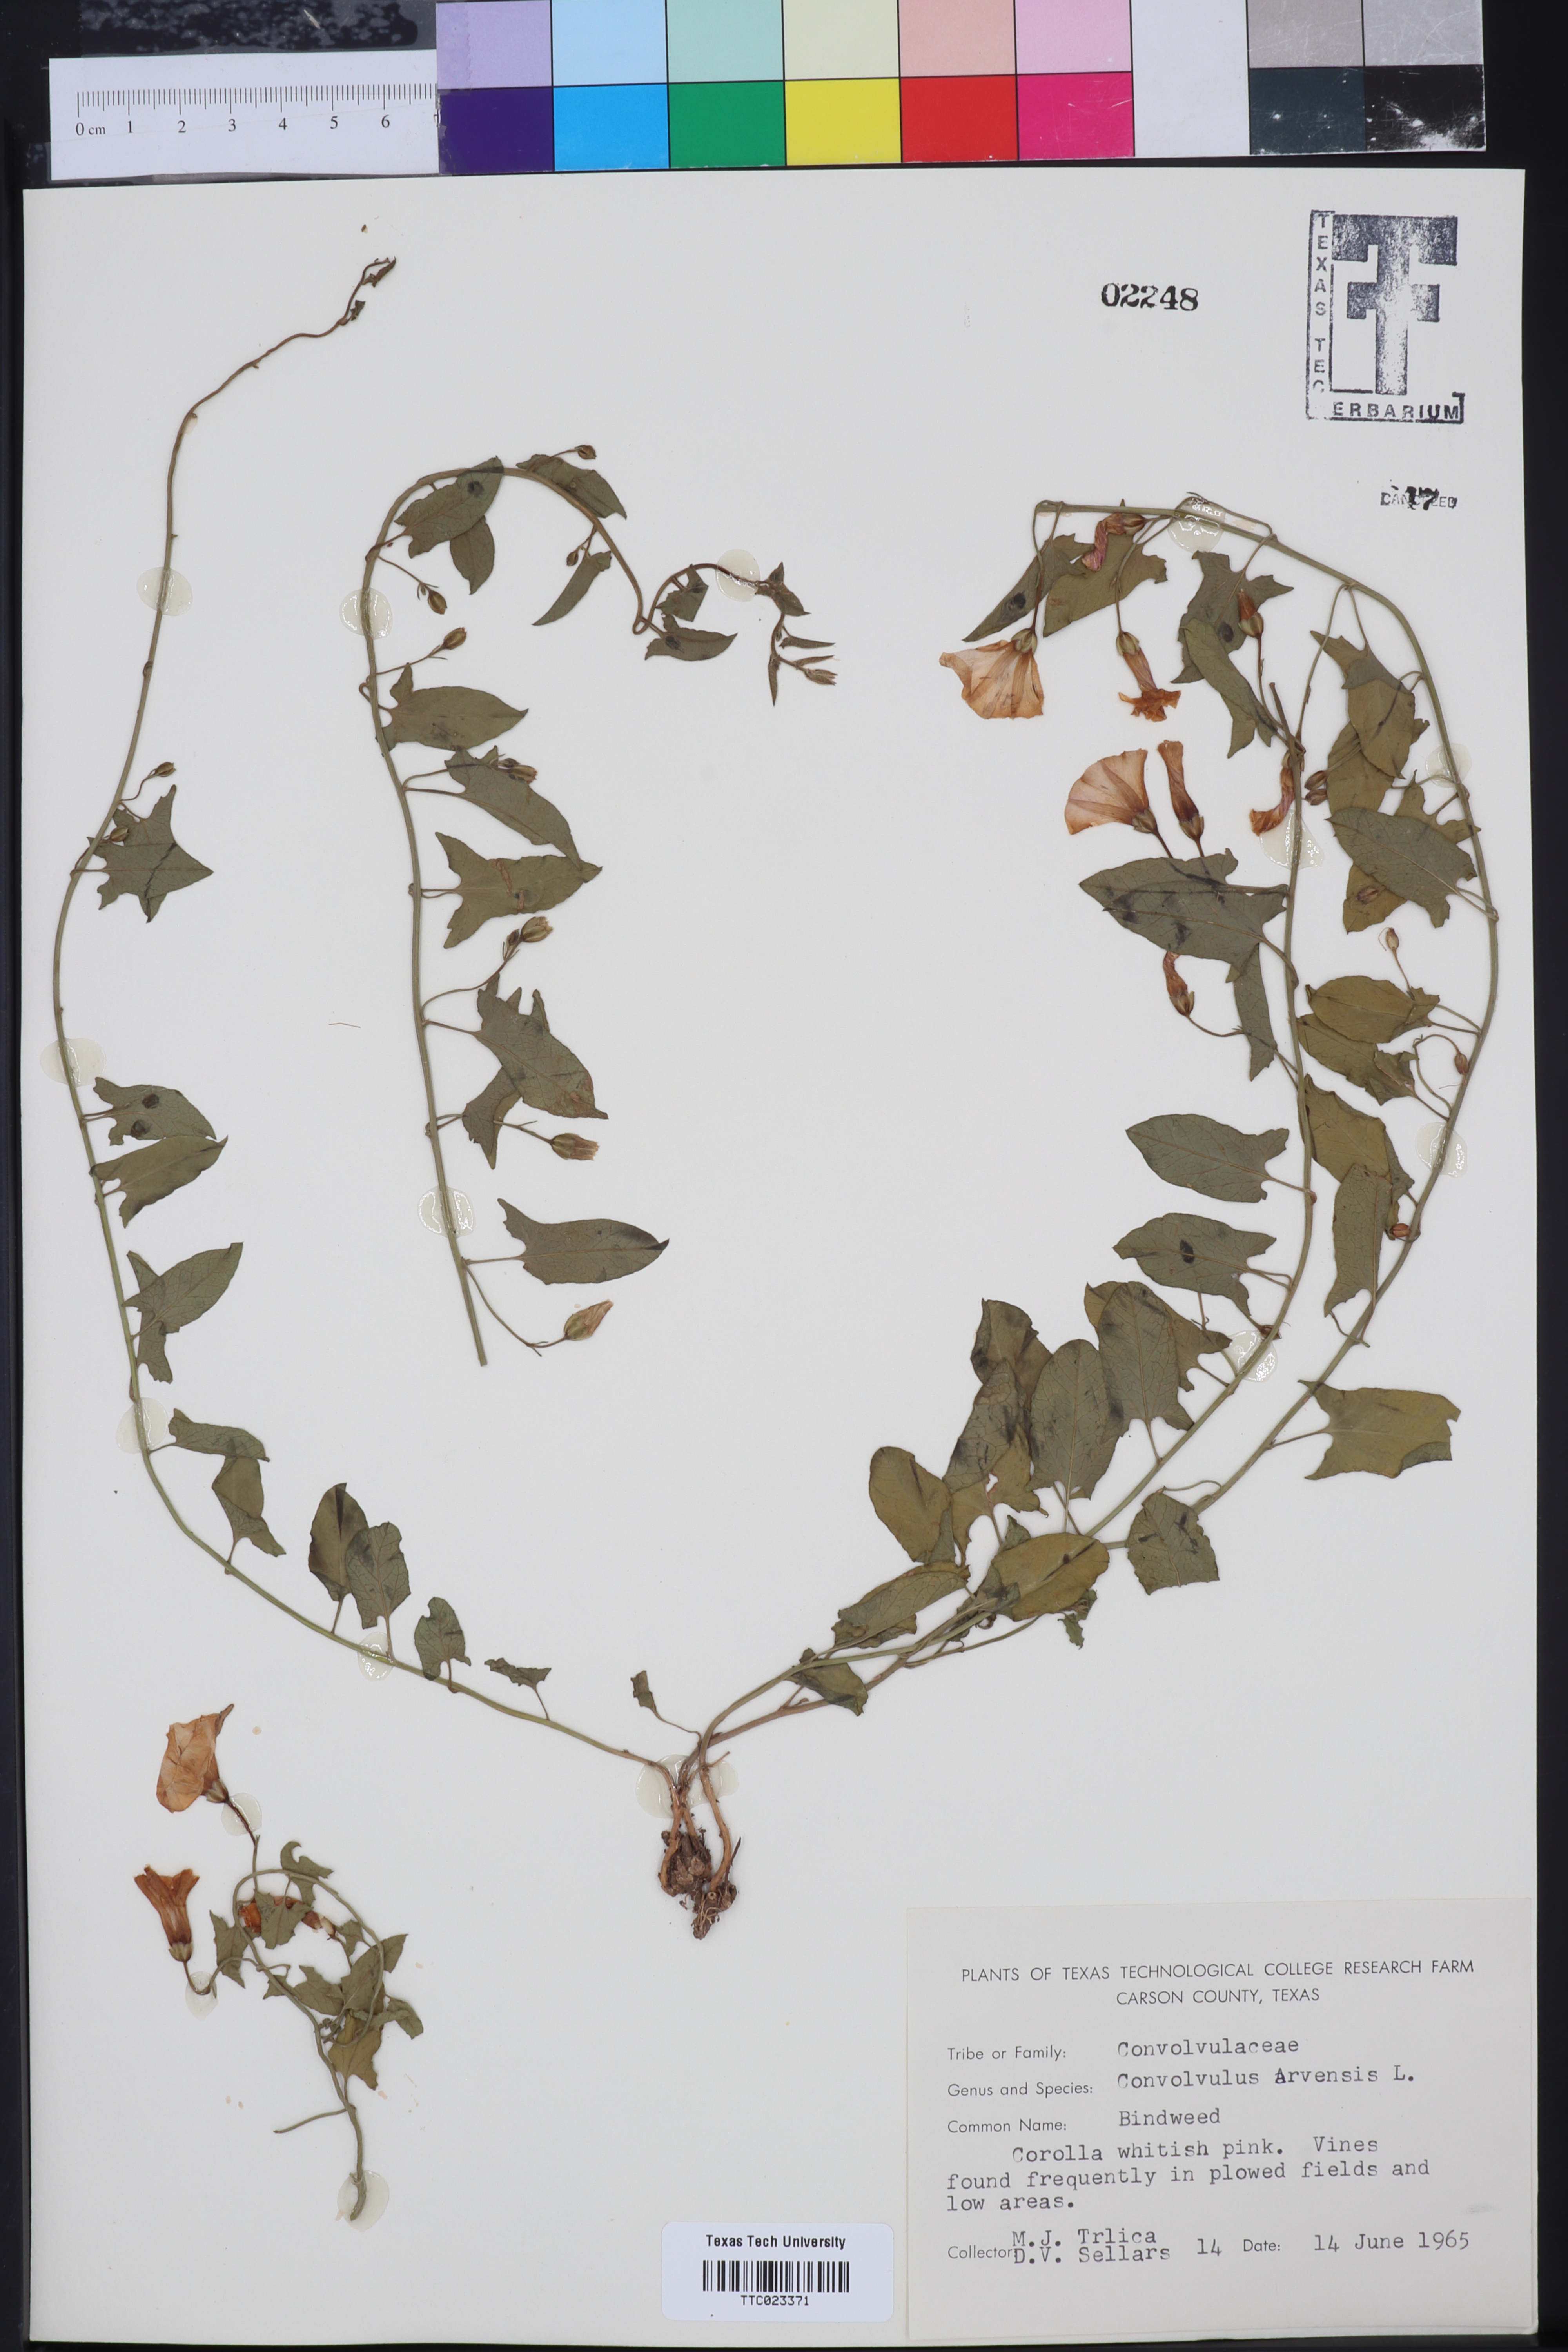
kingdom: Plantae
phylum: Tracheophyta
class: Magnoliopsida
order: Solanales
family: Convolvulaceae
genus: Convolvulus
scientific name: Convolvulus arvensis
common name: Field bindweed
